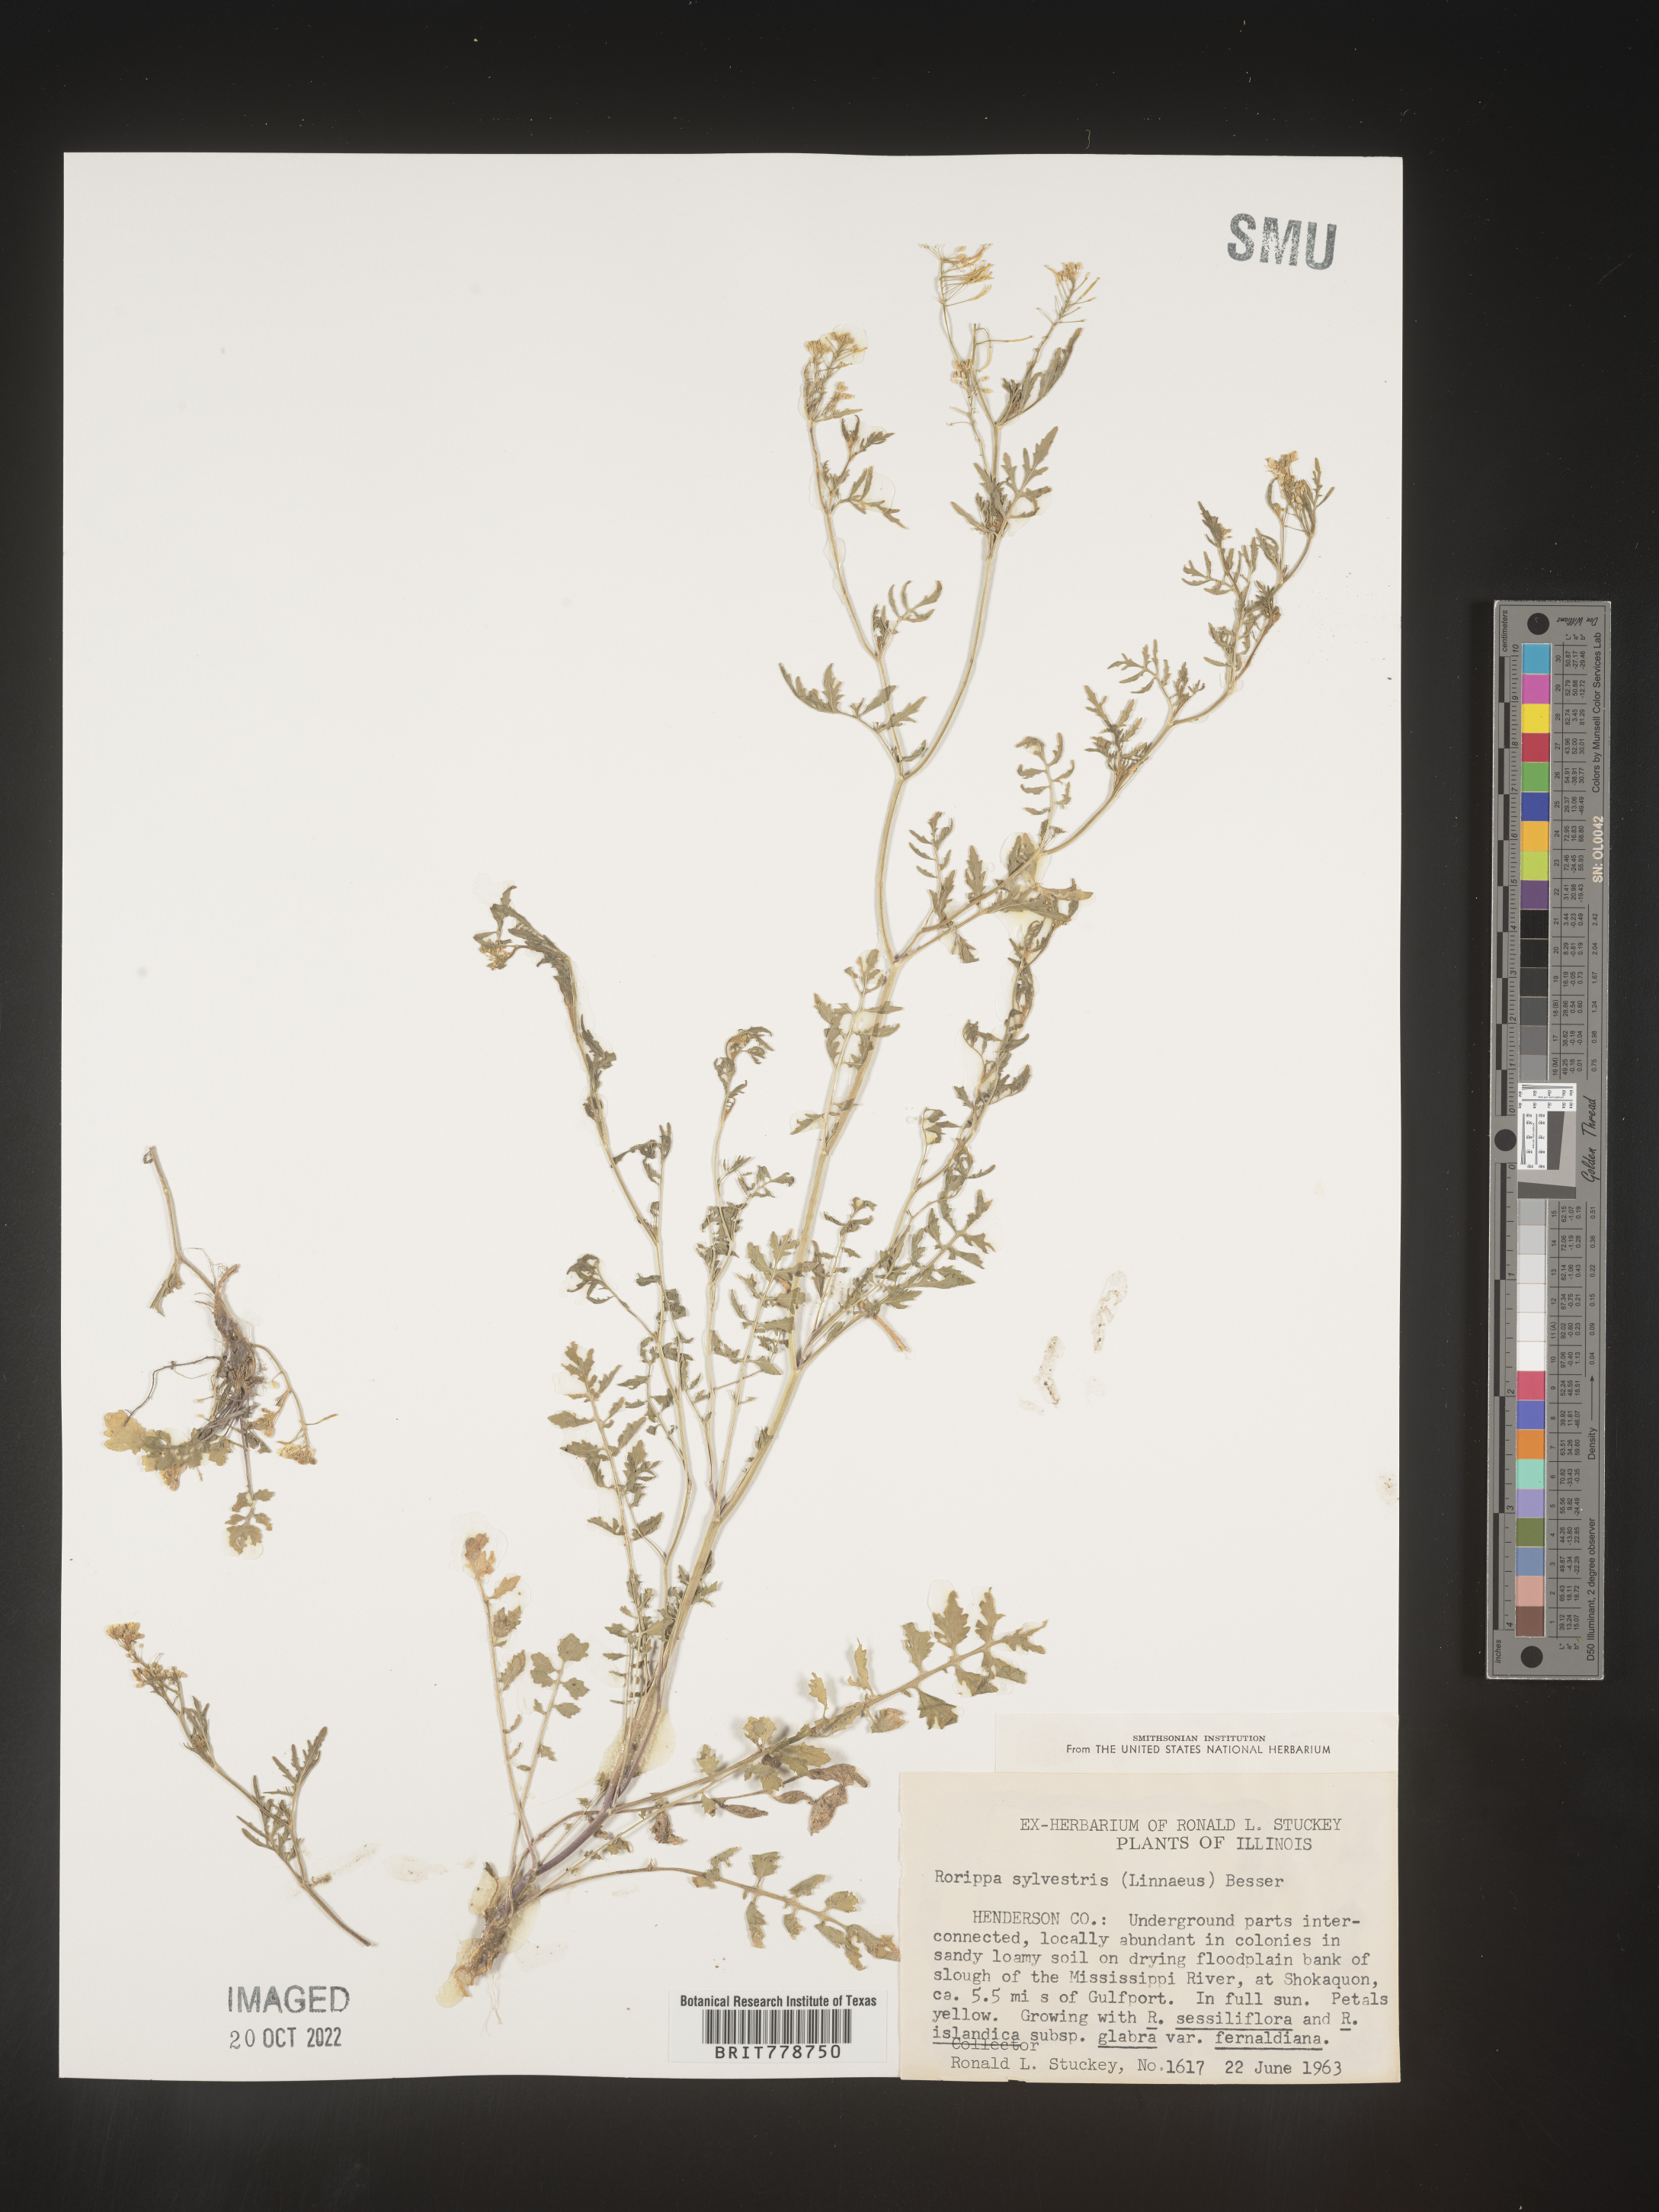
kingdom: Plantae
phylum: Tracheophyta
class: Magnoliopsida
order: Brassicales
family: Brassicaceae
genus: Rorippa
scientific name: Rorippa sylvestris
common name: Creeping yellowcress
